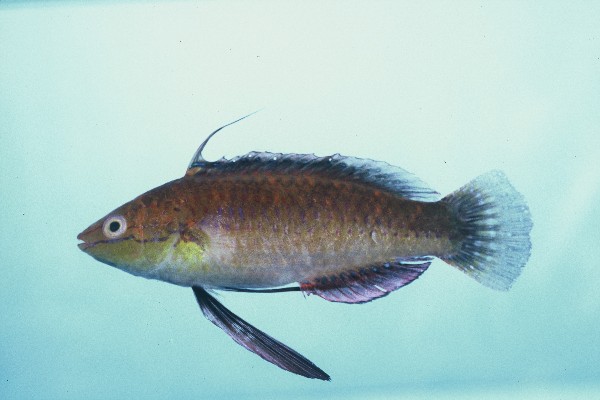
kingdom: Animalia
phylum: Chordata
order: Perciformes
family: Labridae
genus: Cirrhilabrus
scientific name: Cirrhilabrus rubriventralis
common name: Social wrasse
